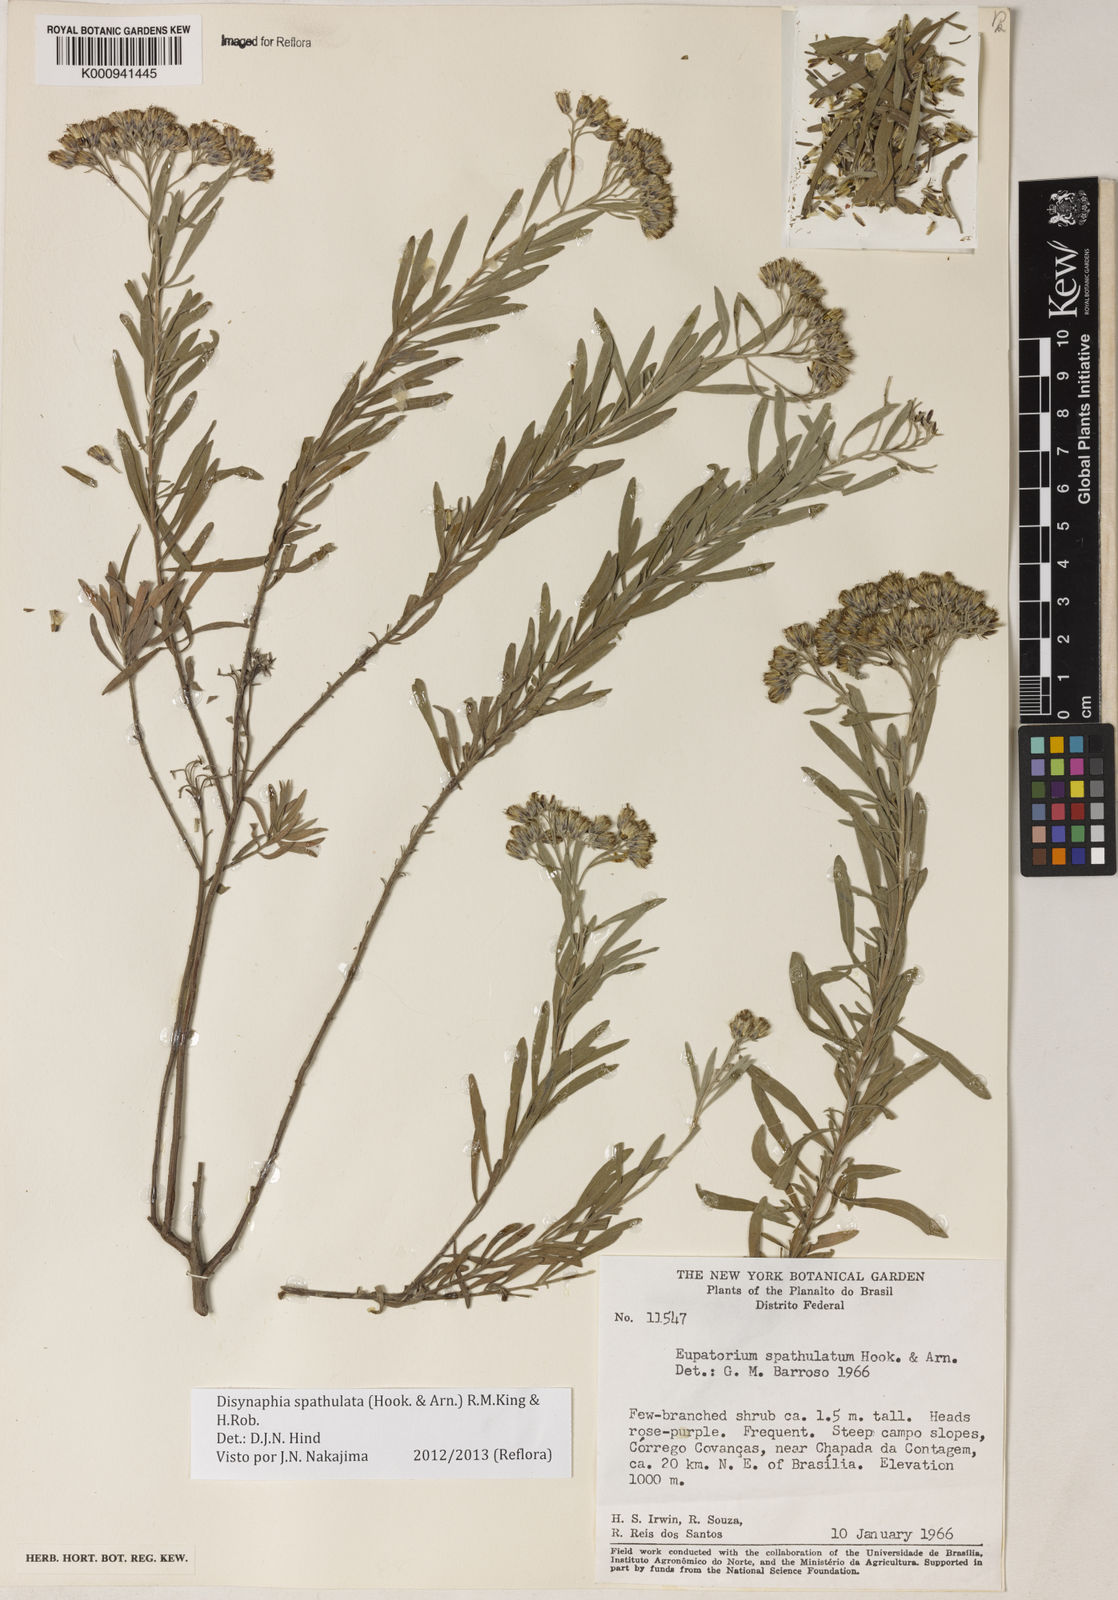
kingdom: Plantae
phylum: Tracheophyta
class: Magnoliopsida
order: Asterales
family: Asteraceae
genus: Disynaphia
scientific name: Disynaphia spathulata
